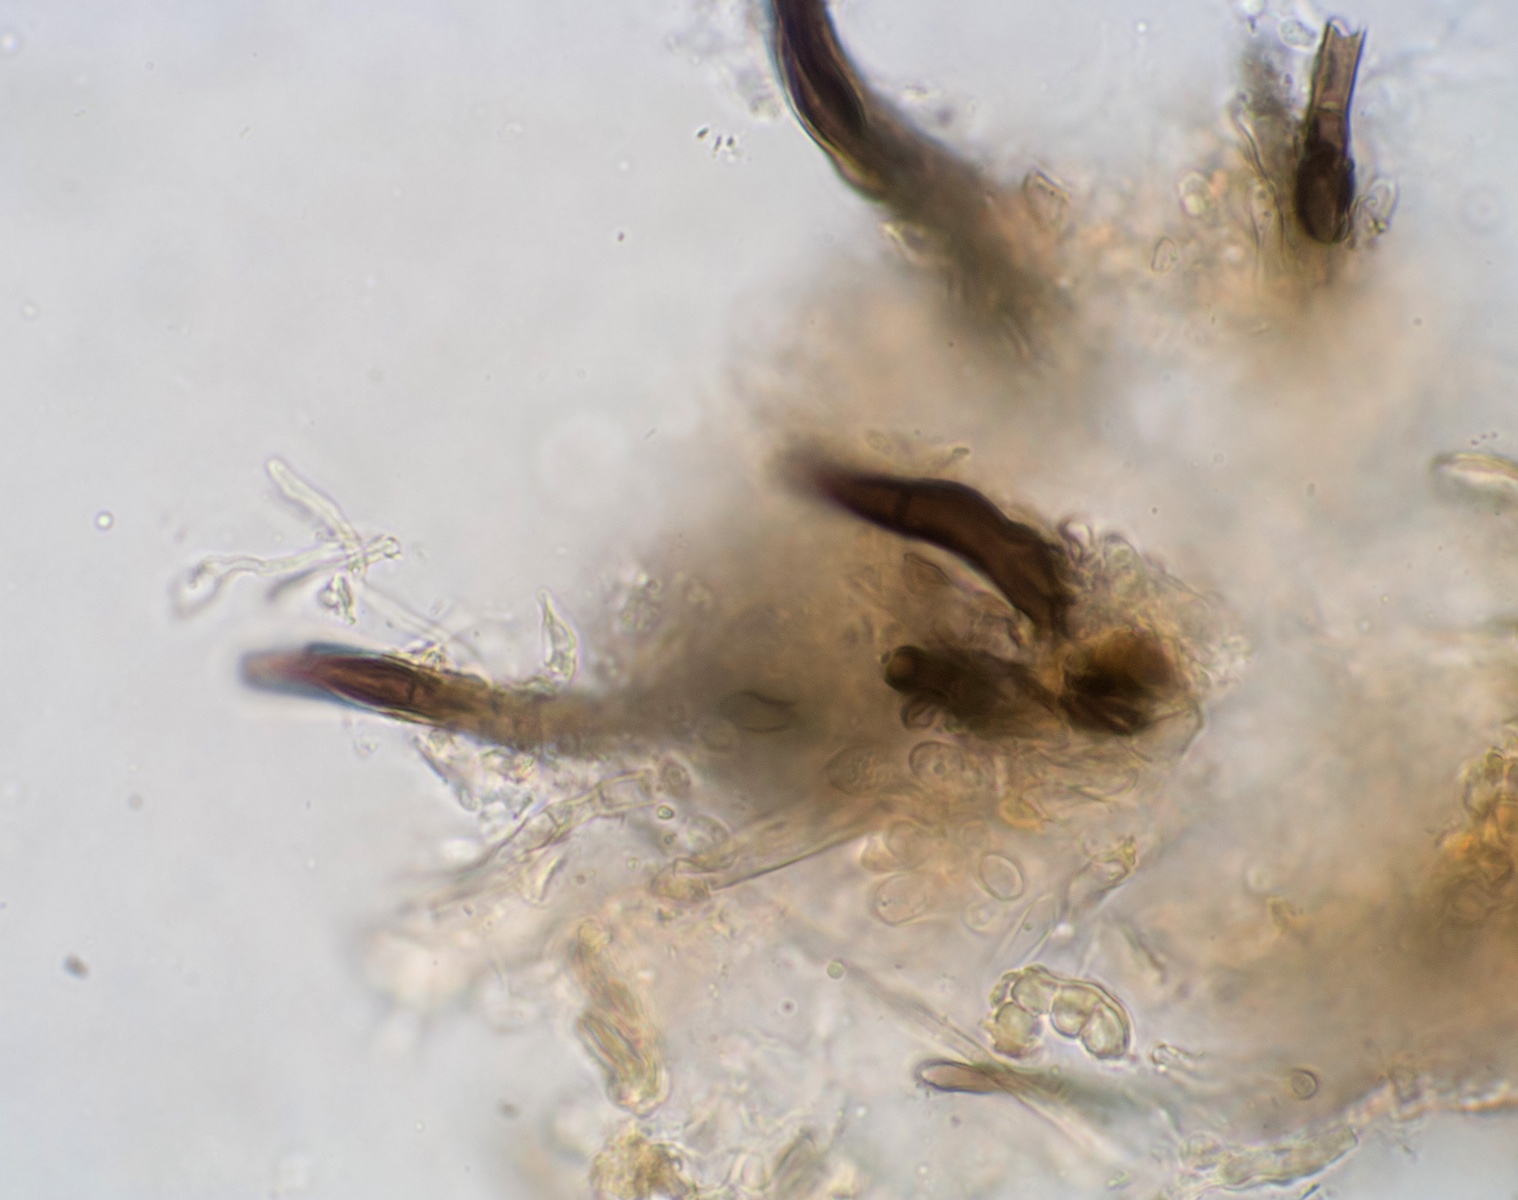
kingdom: Fungi
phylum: Ascomycota
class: Sordariomycetes
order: Glomerellales
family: Glomerellaceae
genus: Colletotrichum
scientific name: Colletotrichum trichellum
